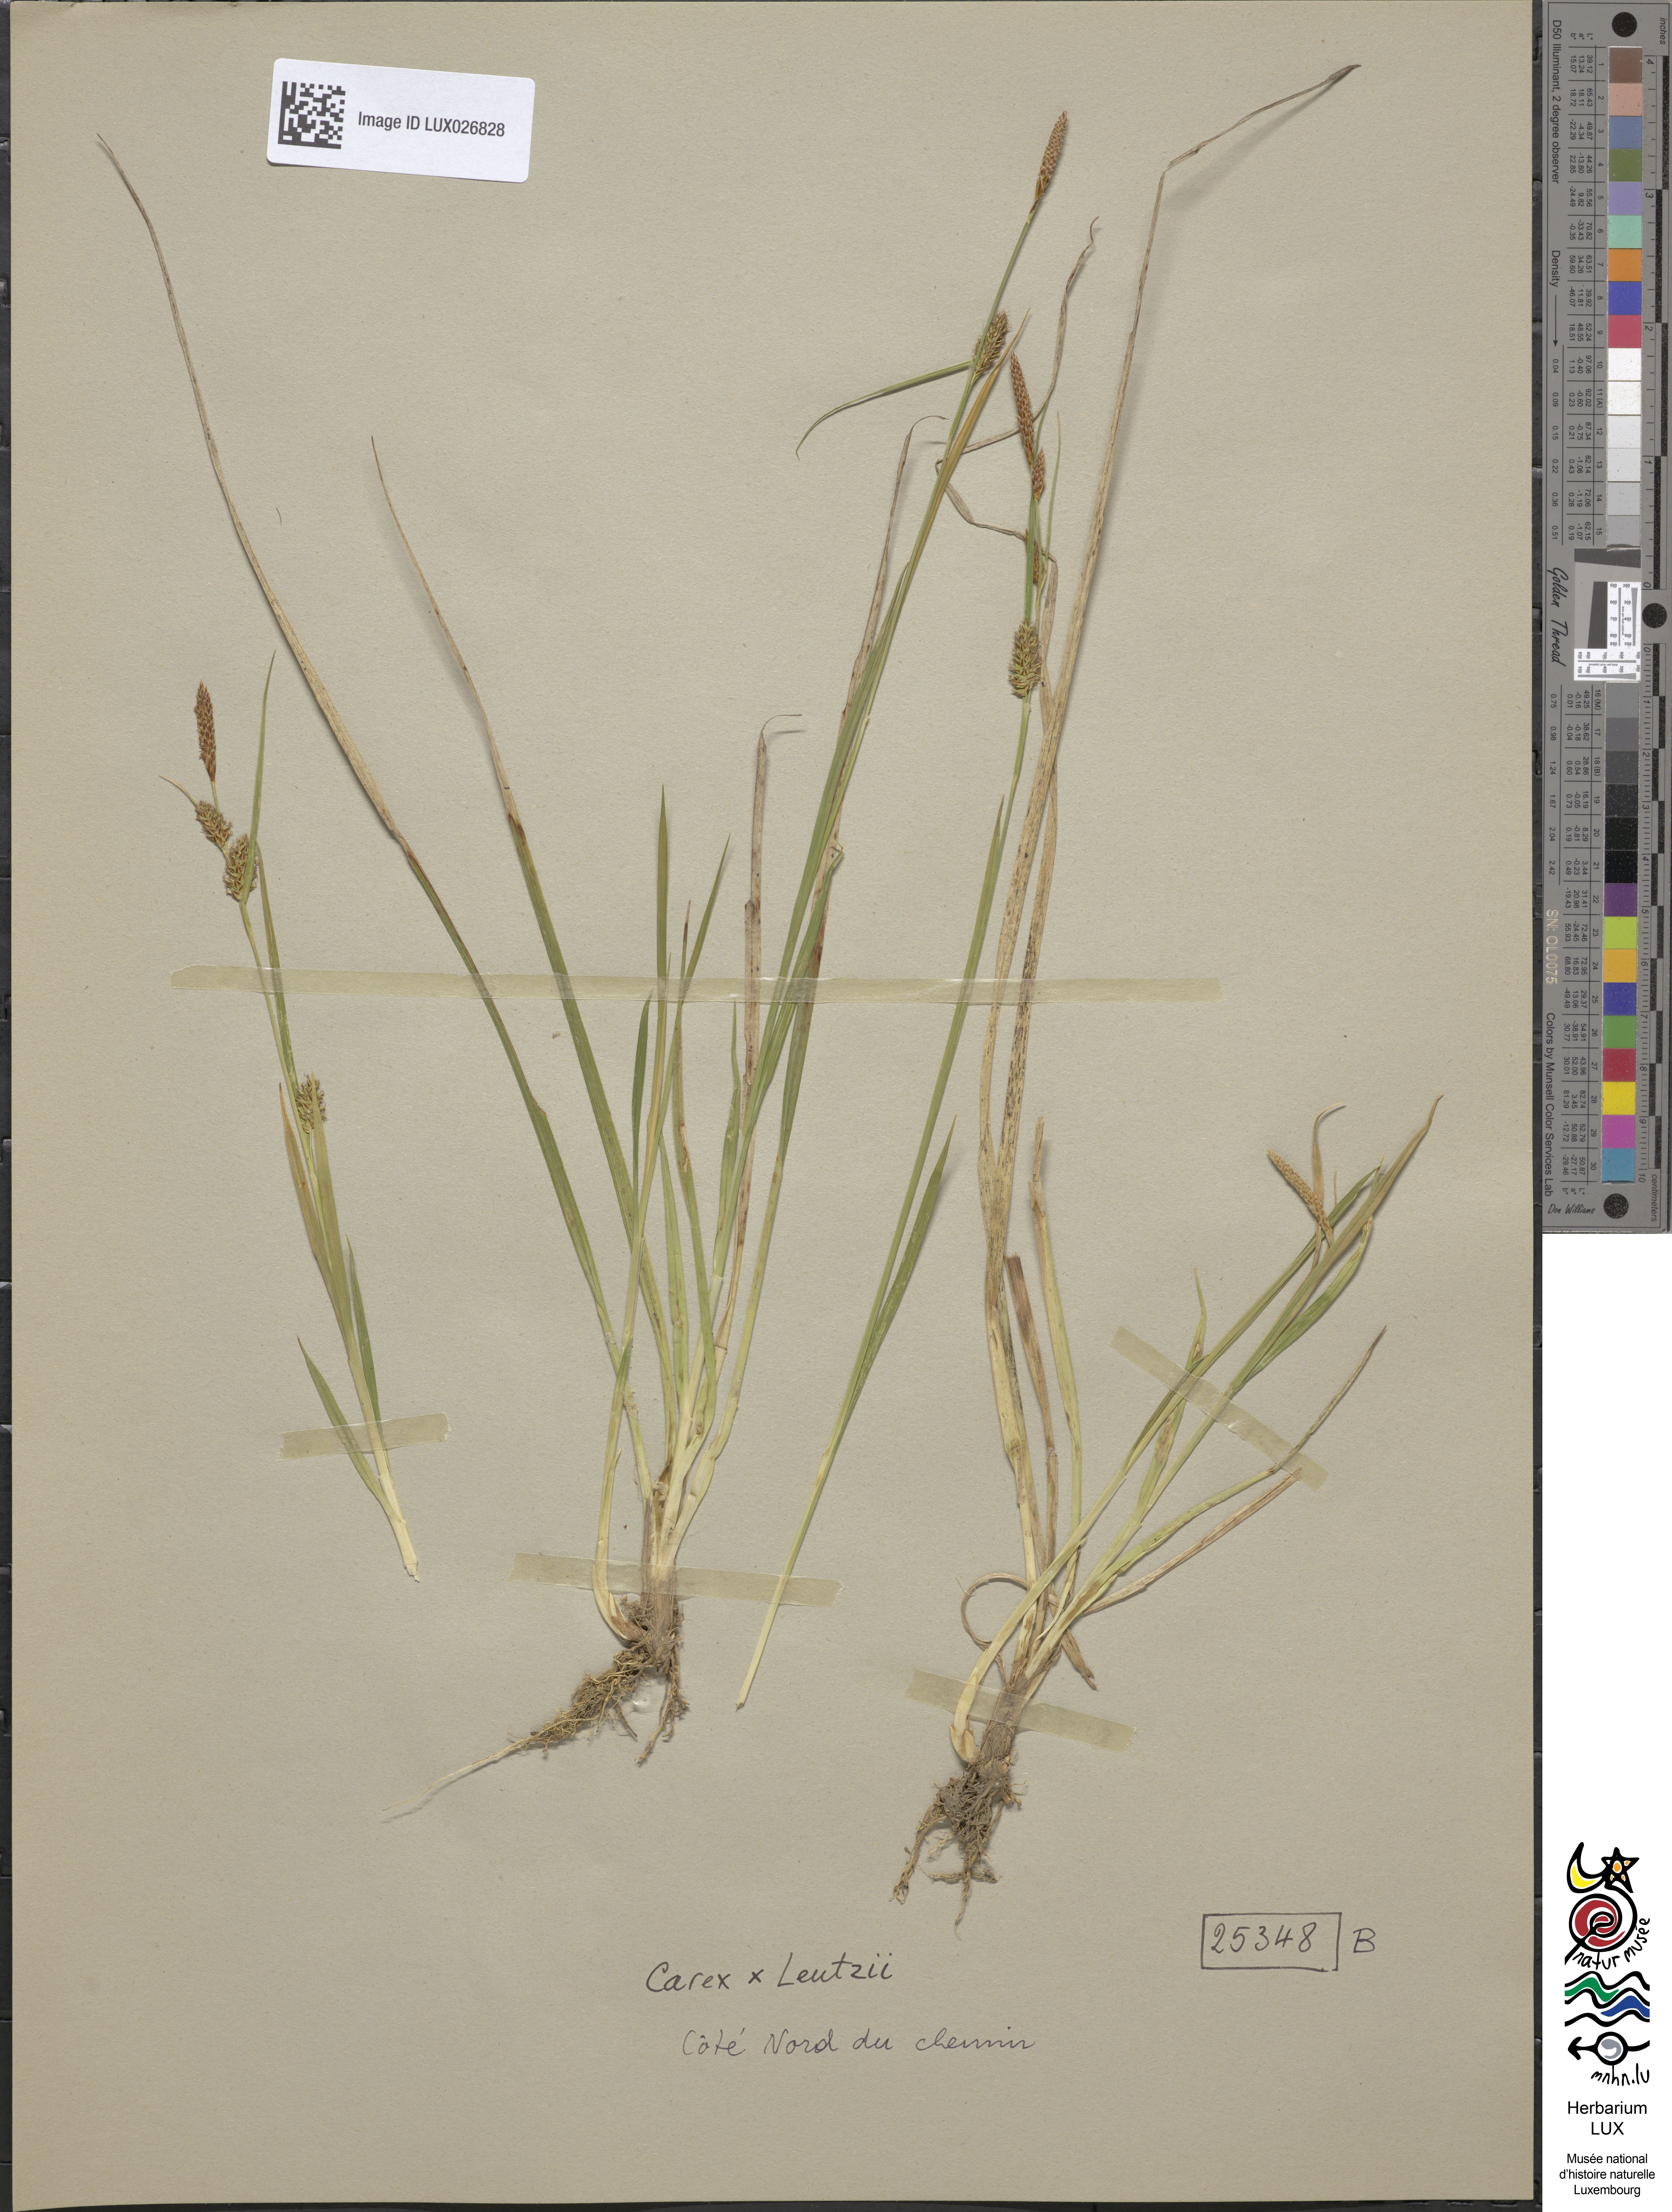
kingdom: Plantae
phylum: Tracheophyta
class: Liliopsida
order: Poales
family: Cyperaceae
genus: Carex
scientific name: Carex lepidocarpa
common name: Long-stalked yellow-sedge
